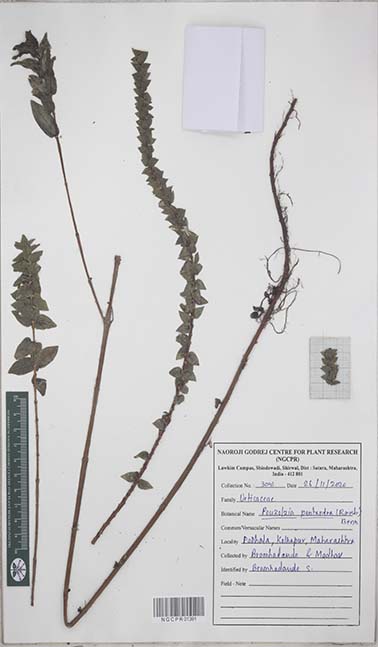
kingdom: Plantae
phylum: Tracheophyta
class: Magnoliopsida
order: Rosales
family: Urticaceae
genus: Gonostegia
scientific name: Gonostegia pentandra
